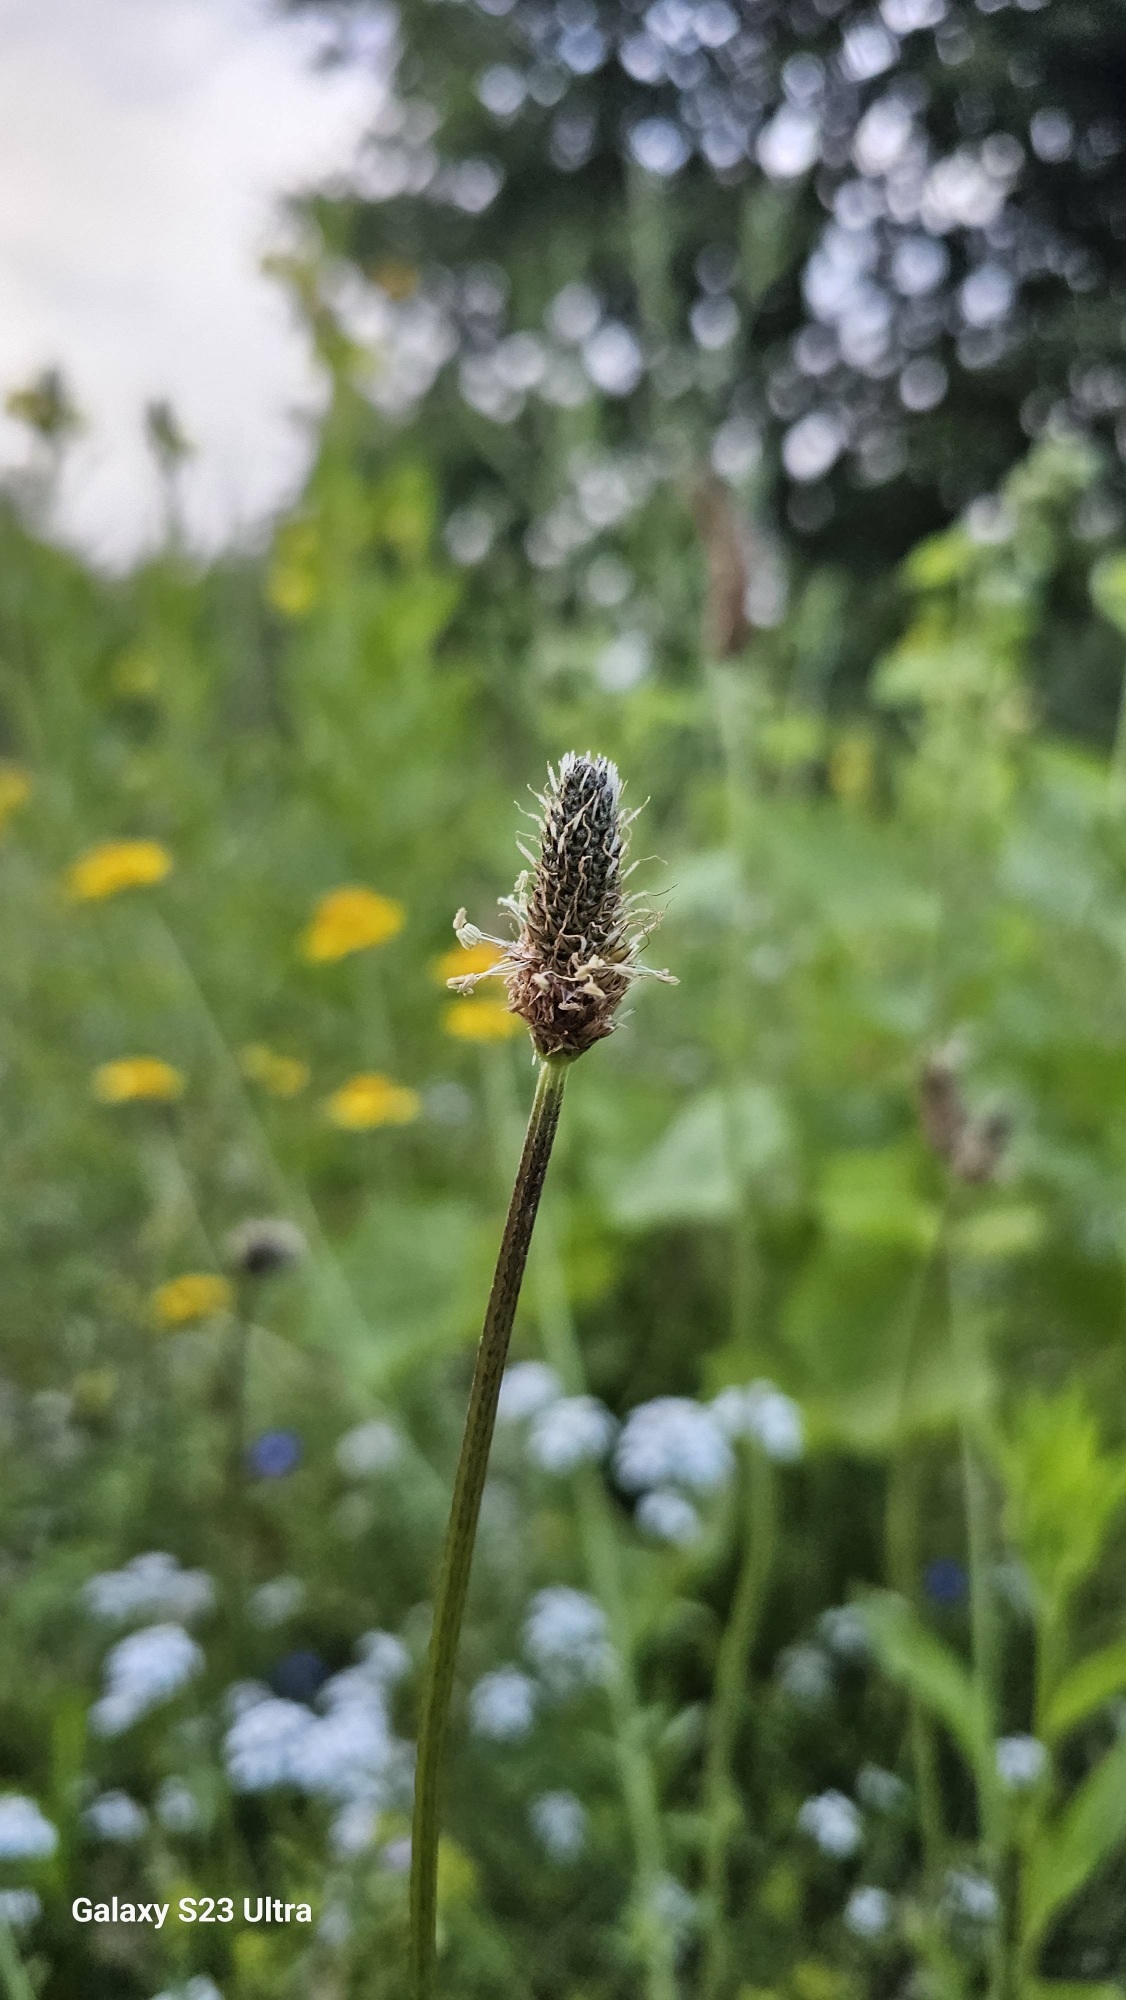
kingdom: Plantae
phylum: Tracheophyta
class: Magnoliopsida
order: Lamiales
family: Plantaginaceae
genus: Plantago
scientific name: Plantago lanceolata
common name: Lancet-vejbred
